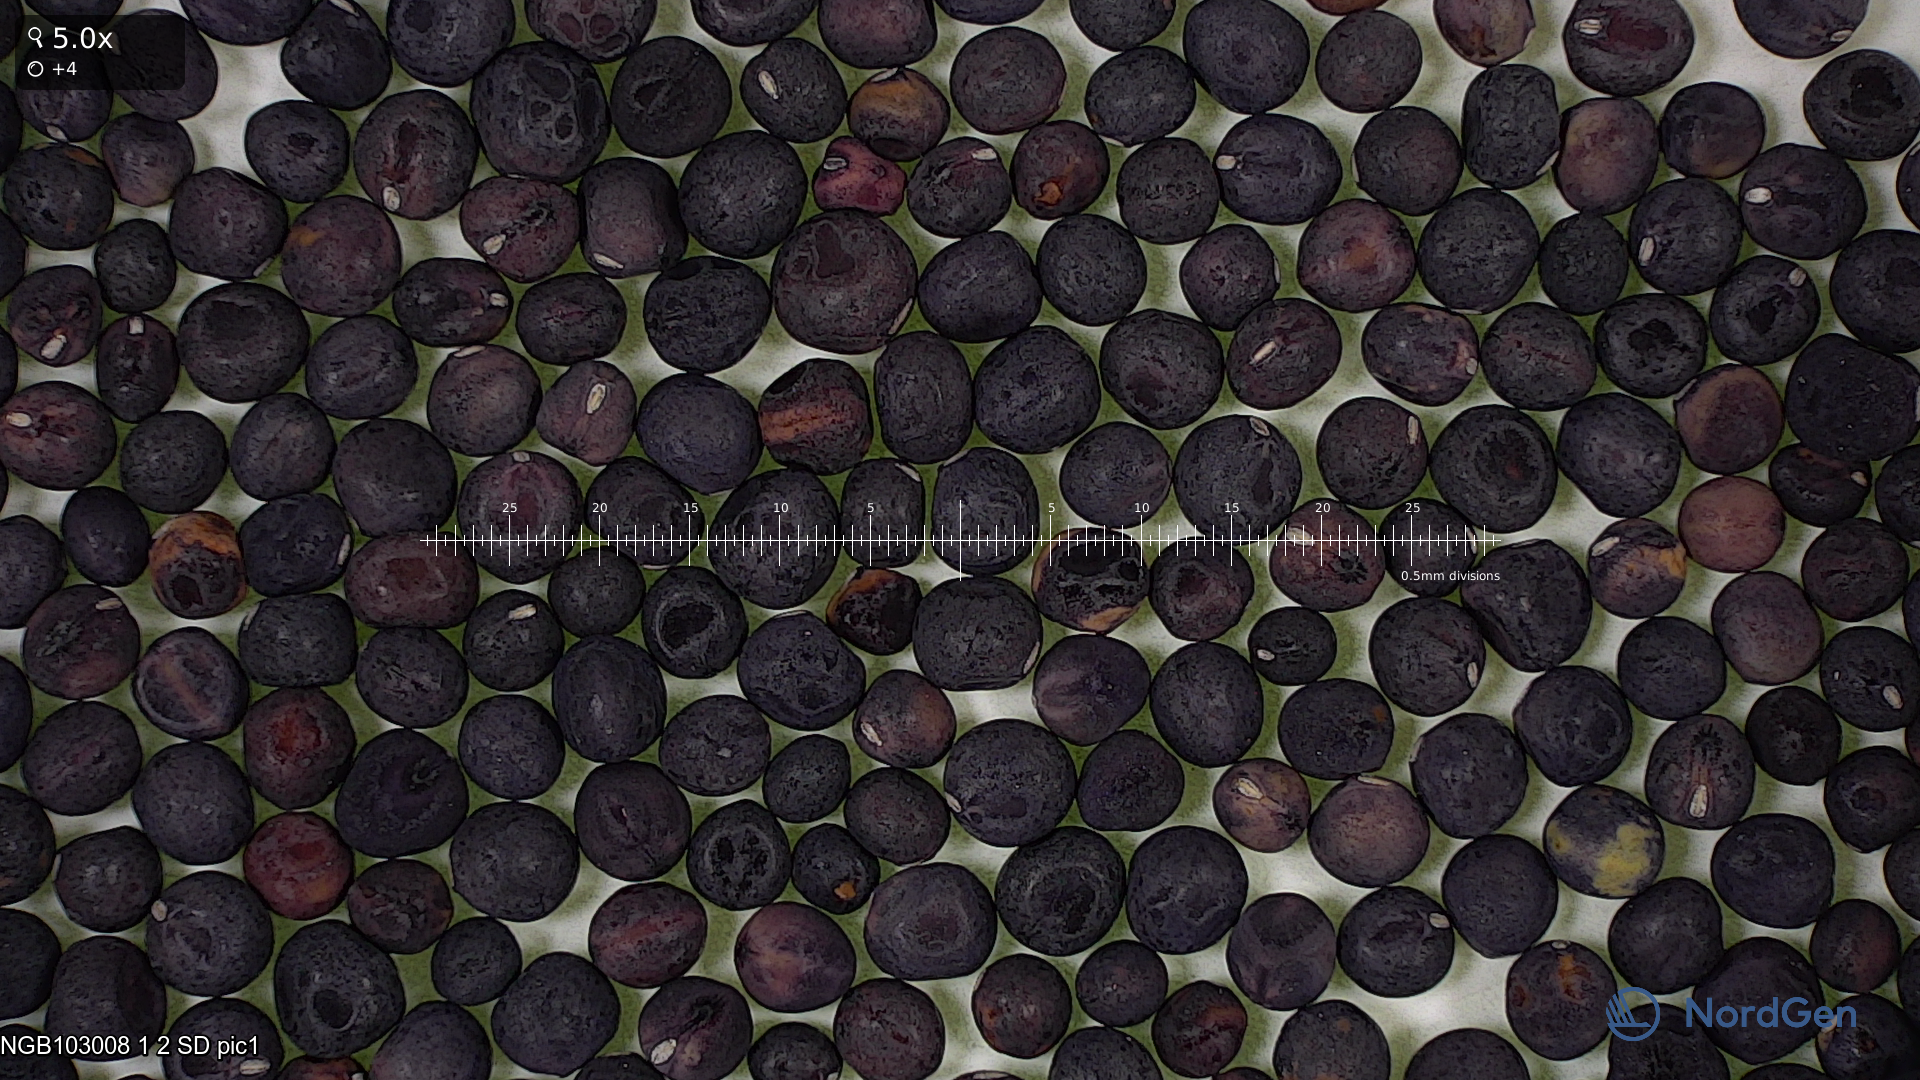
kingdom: Plantae
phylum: Tracheophyta
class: Magnoliopsida
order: Fabales
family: Fabaceae
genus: Lathyrus
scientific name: Lathyrus oleraceus
